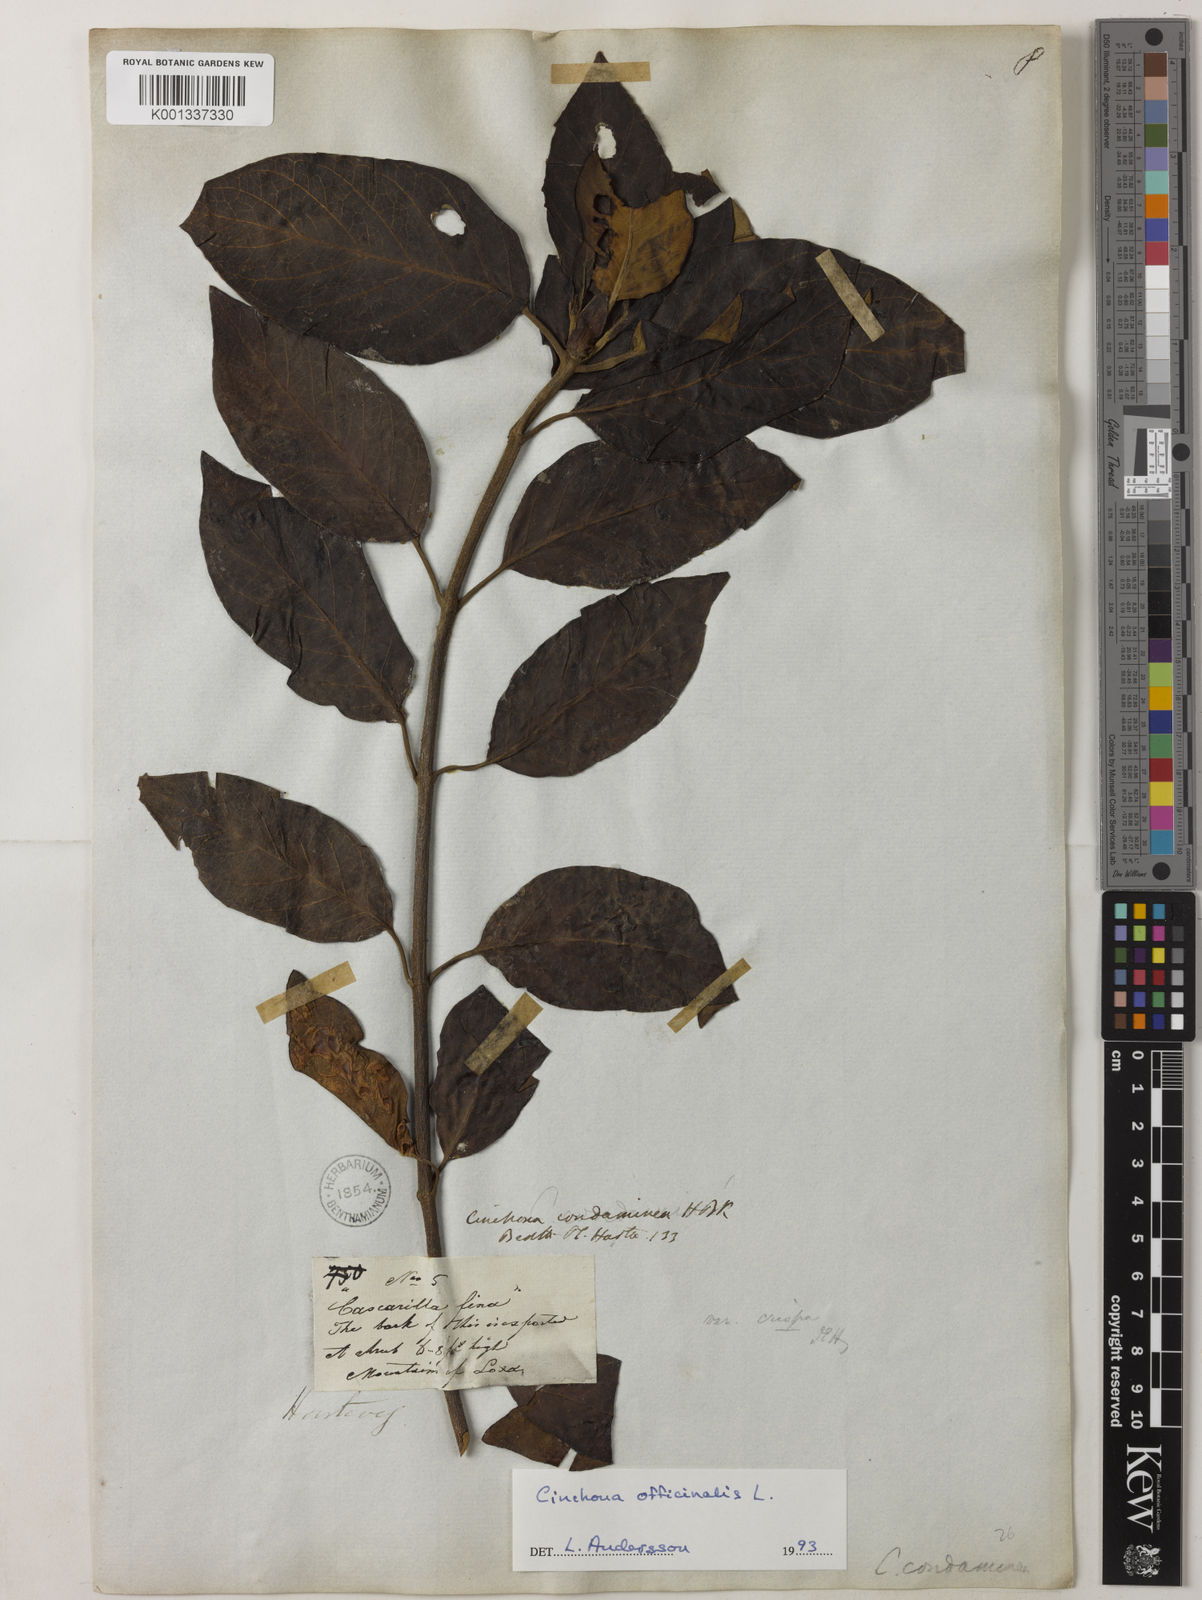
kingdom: Plantae
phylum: Tracheophyta
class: Magnoliopsida
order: Gentianales
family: Rubiaceae
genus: Cinchona
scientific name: Cinchona officinalis
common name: Lojabark
